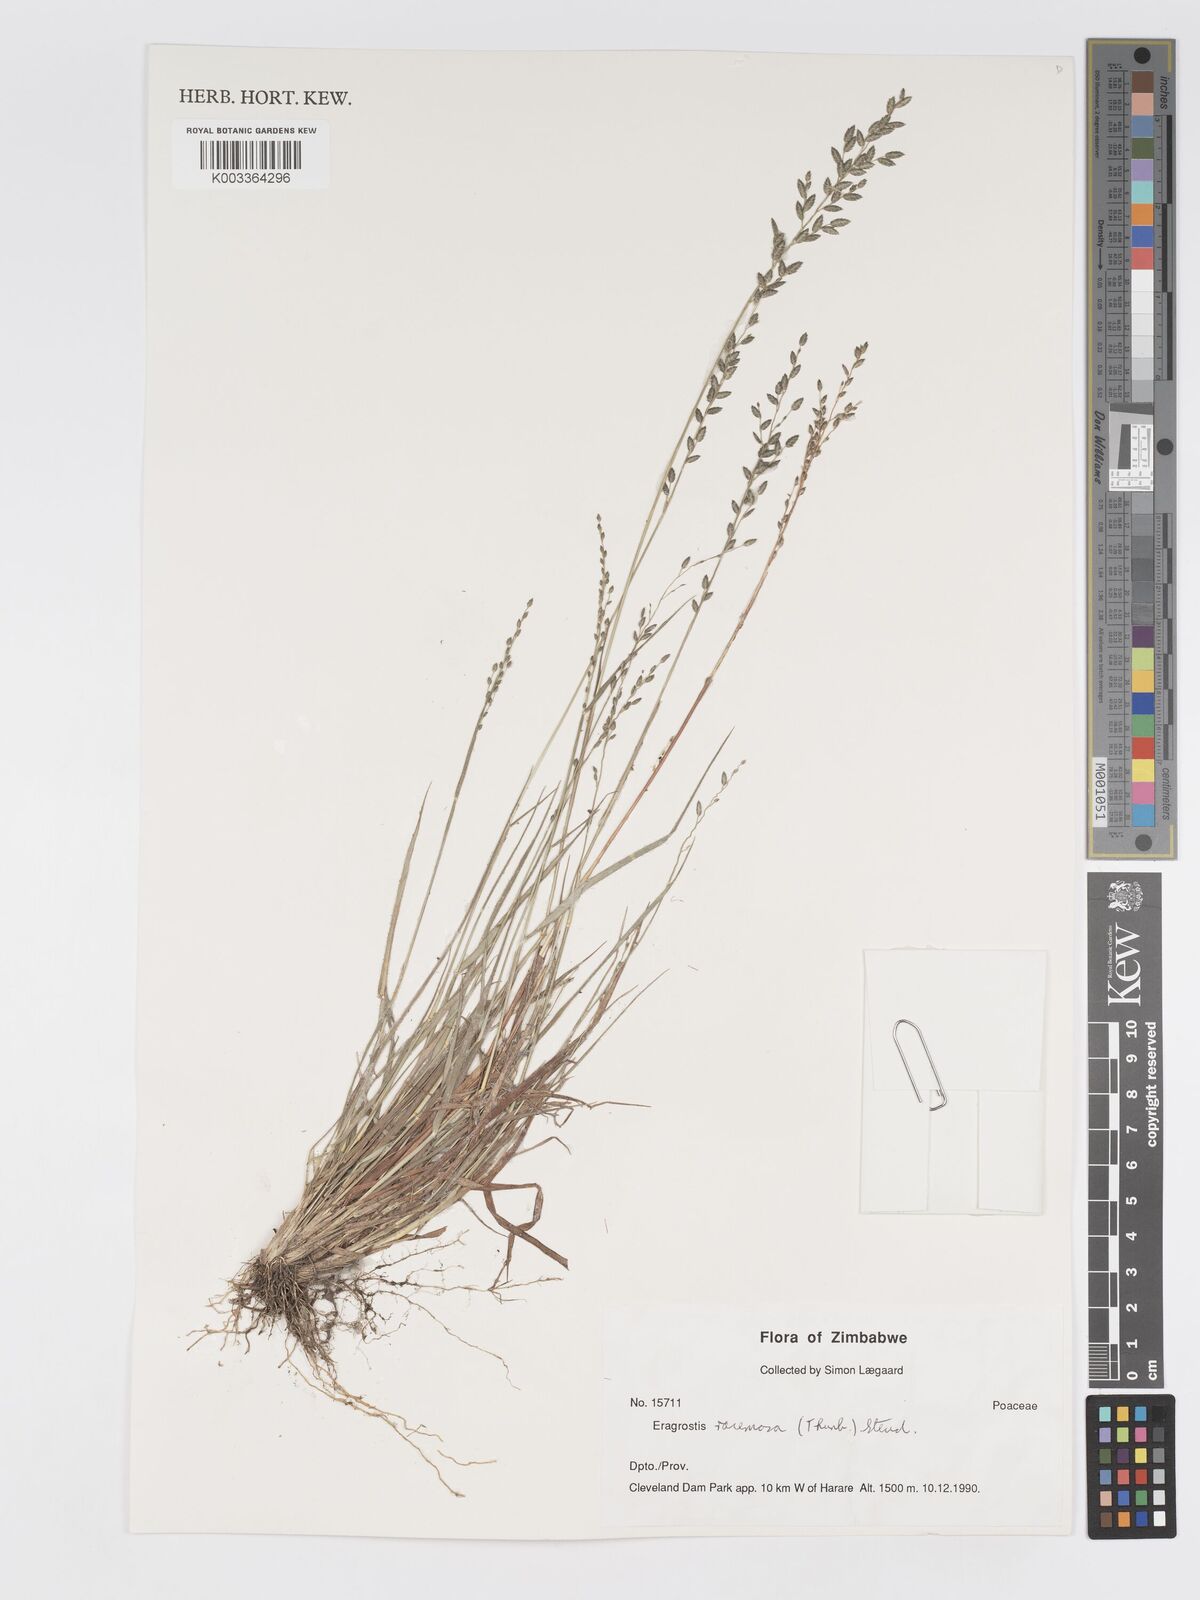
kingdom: Plantae
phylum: Tracheophyta
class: Liliopsida
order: Poales
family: Poaceae
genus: Eragrostis
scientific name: Eragrostis racemosa
